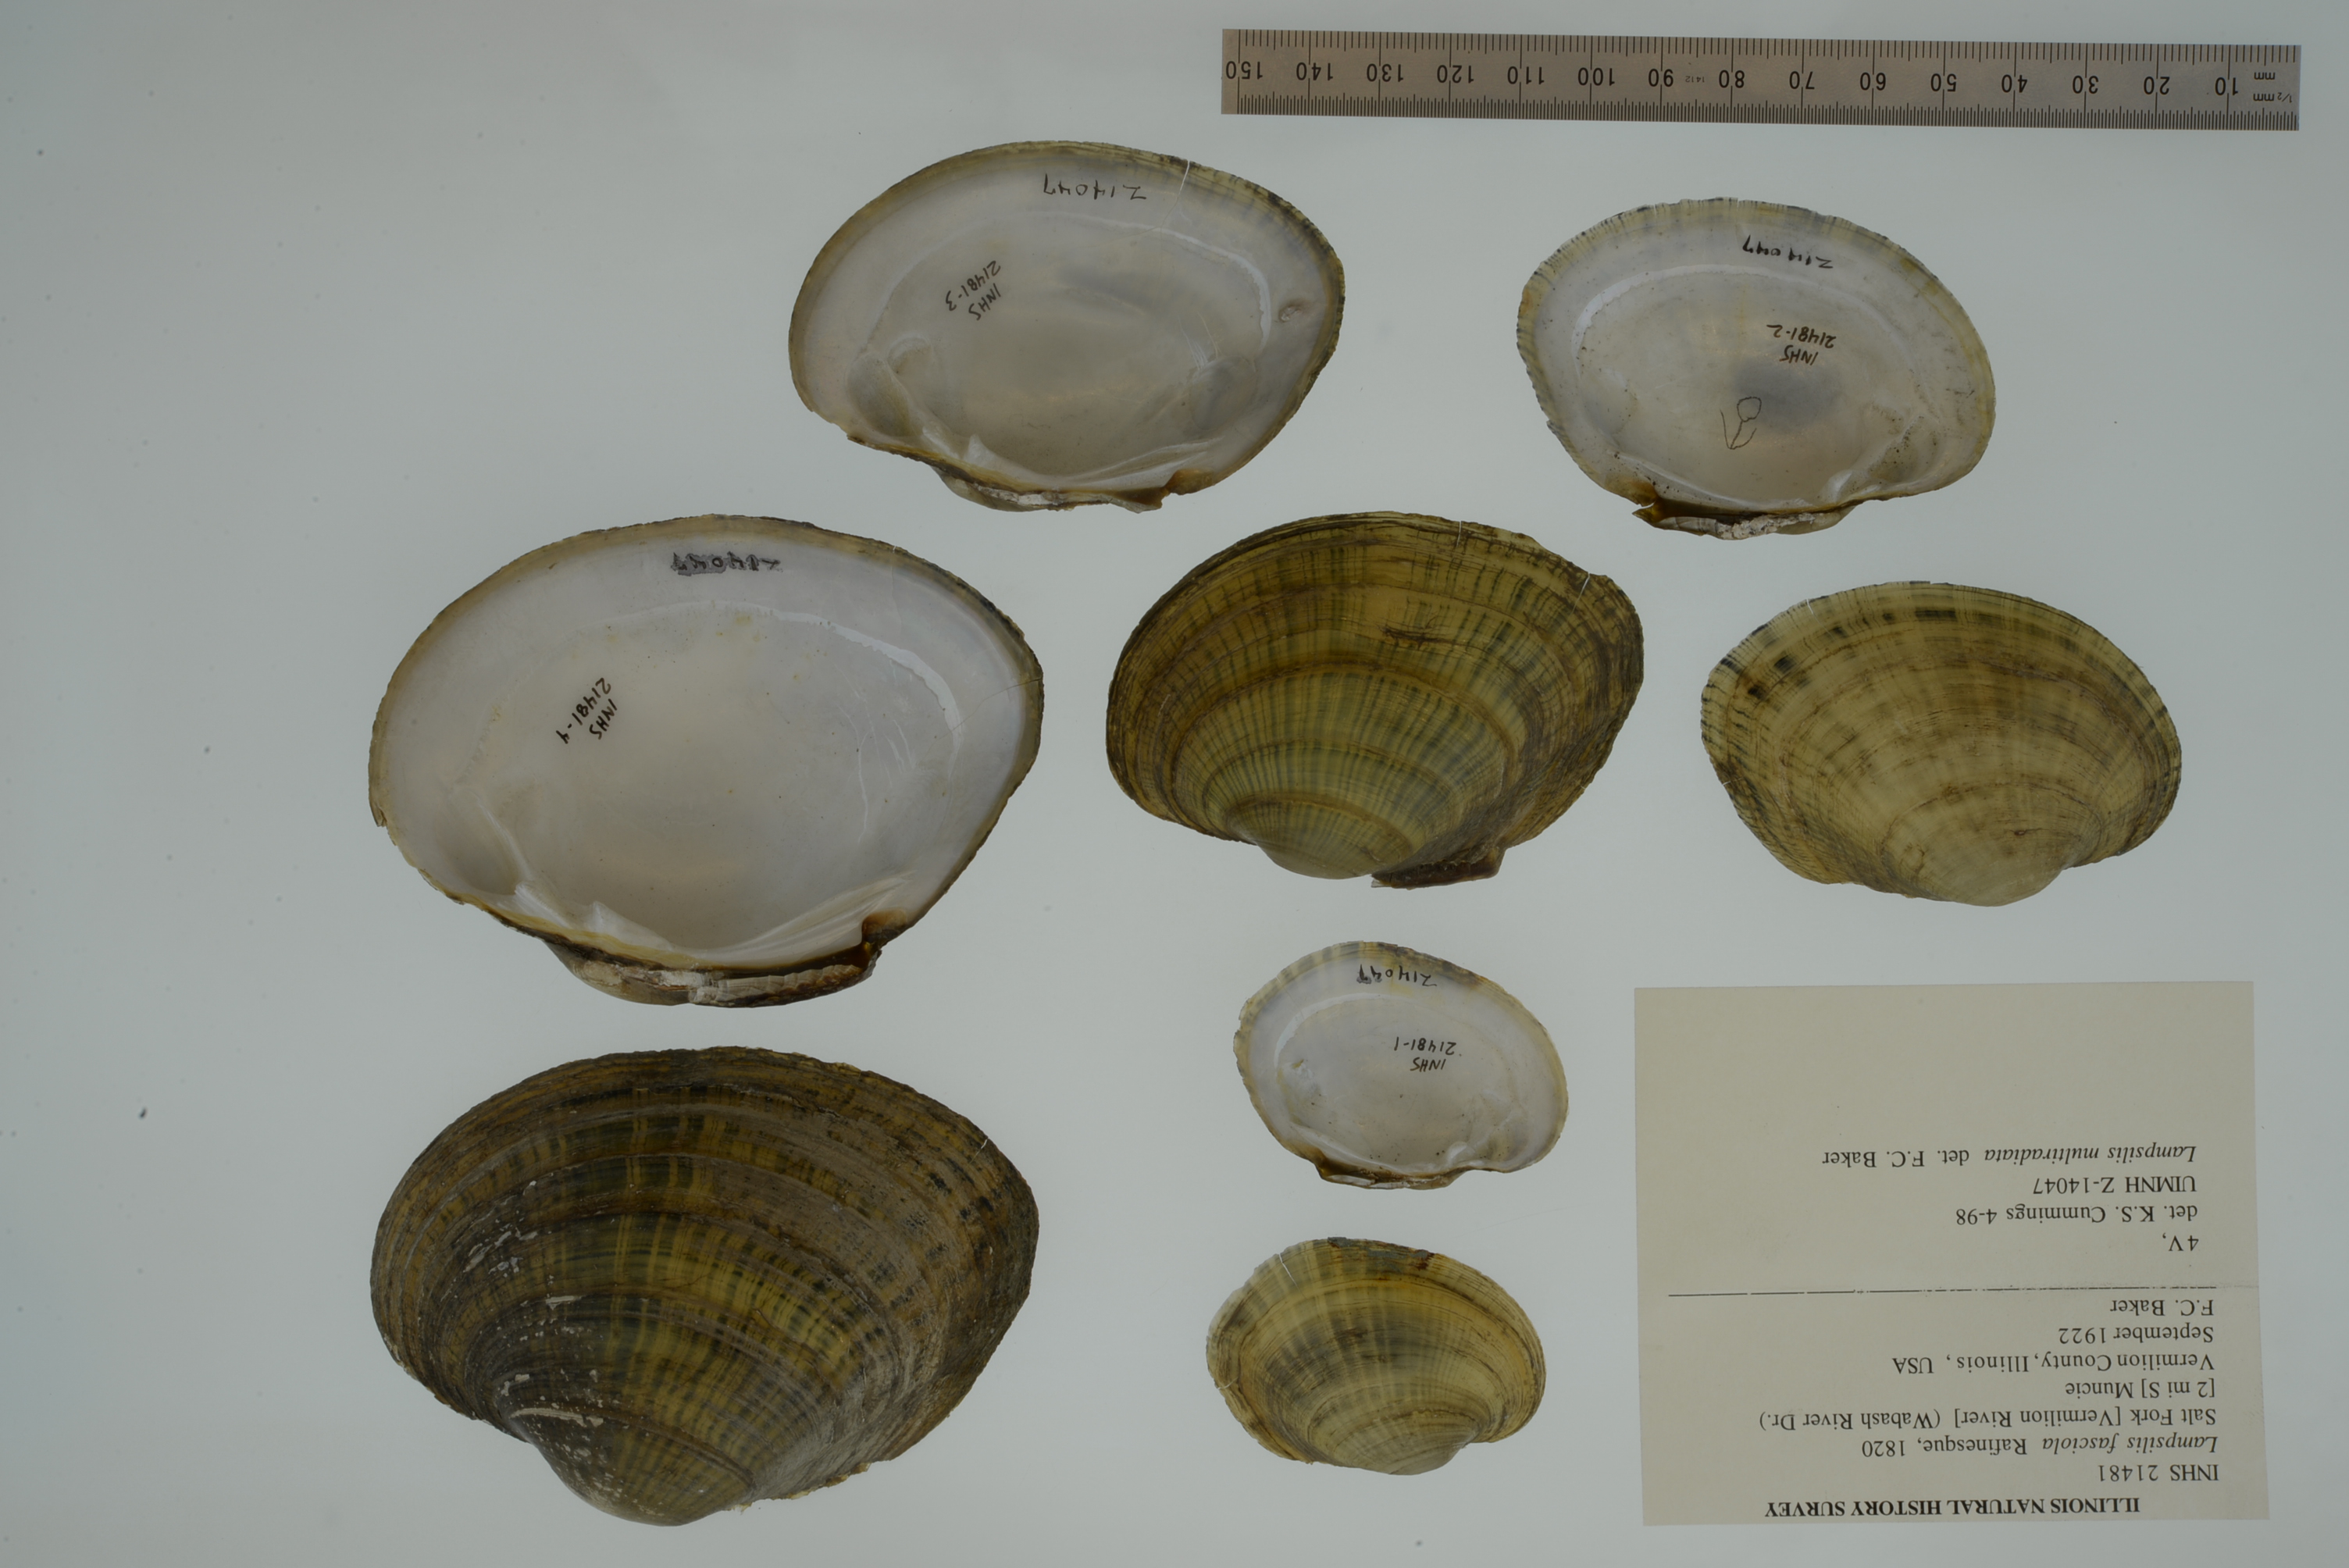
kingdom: Animalia
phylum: Mollusca
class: Bivalvia
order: Unionida
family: Unionidae
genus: Lampsilis
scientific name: Lampsilis fasciola
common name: Wavyrayed lampmussel
